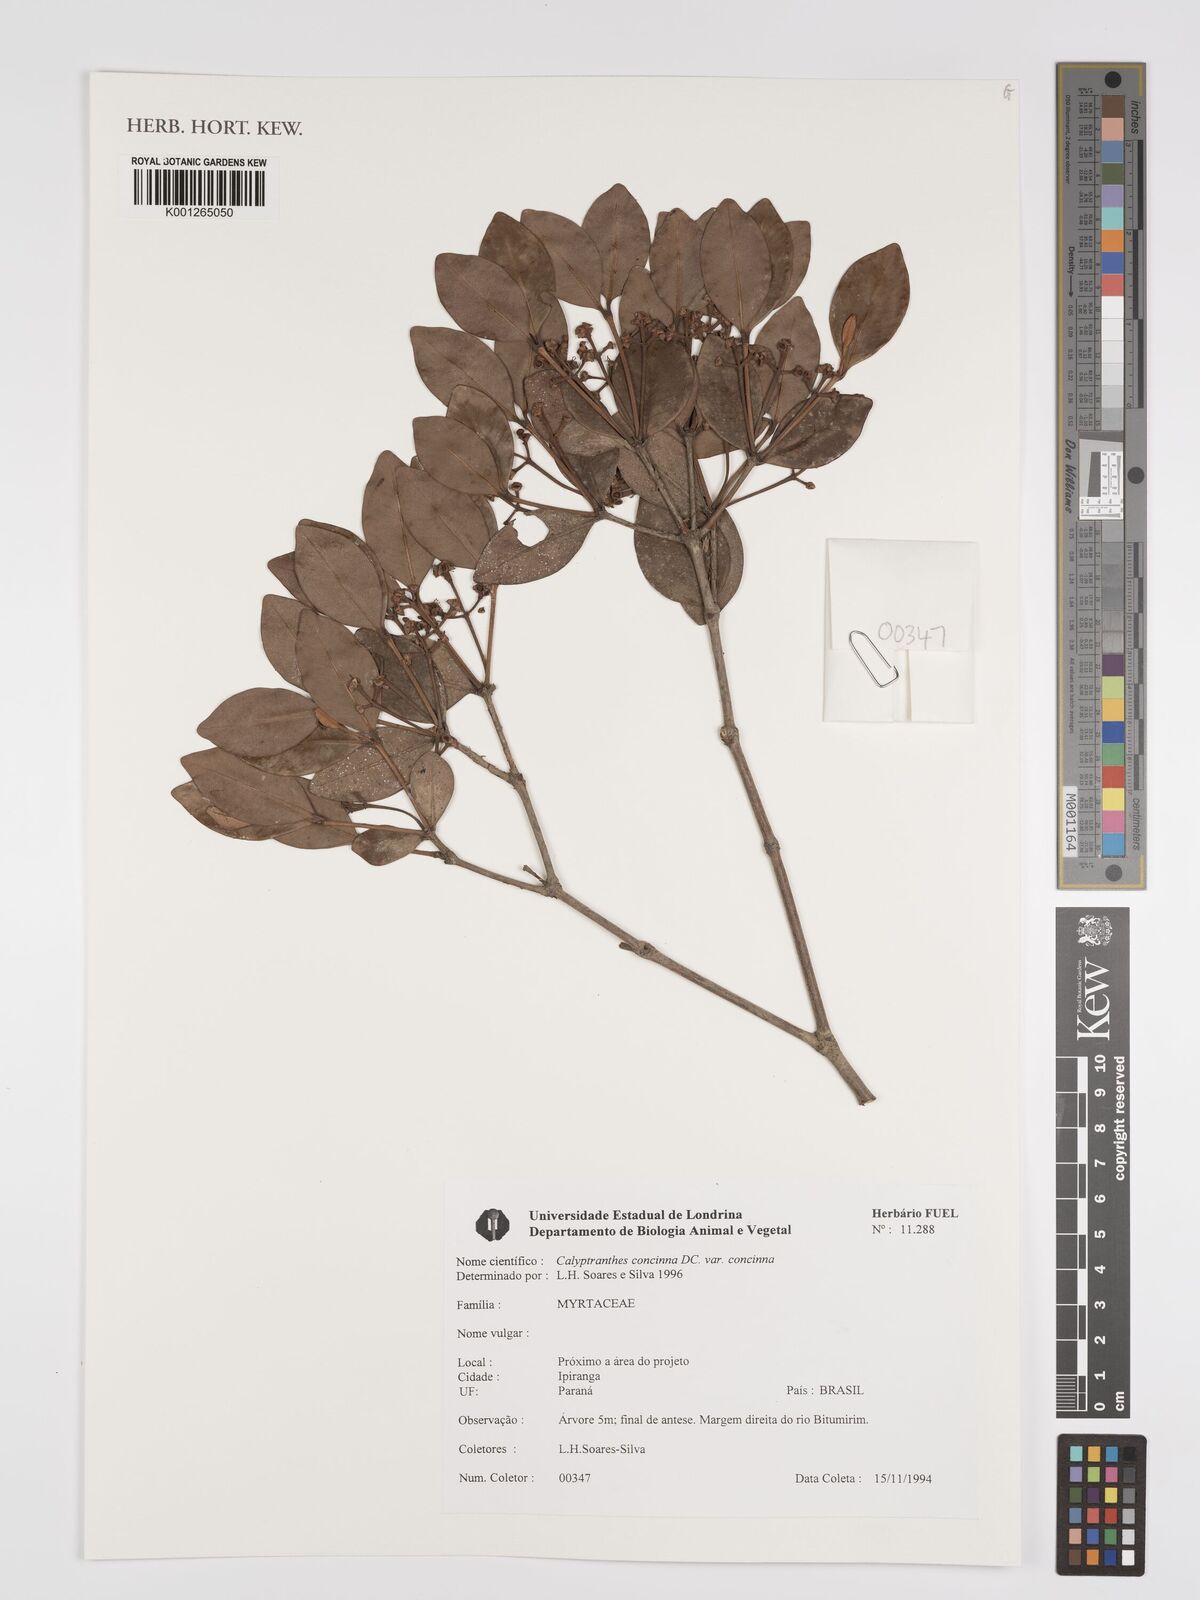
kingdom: Plantae
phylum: Tracheophyta
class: Magnoliopsida
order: Myrtales
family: Myrtaceae
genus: Myrcia
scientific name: Myrcia cruciflora
